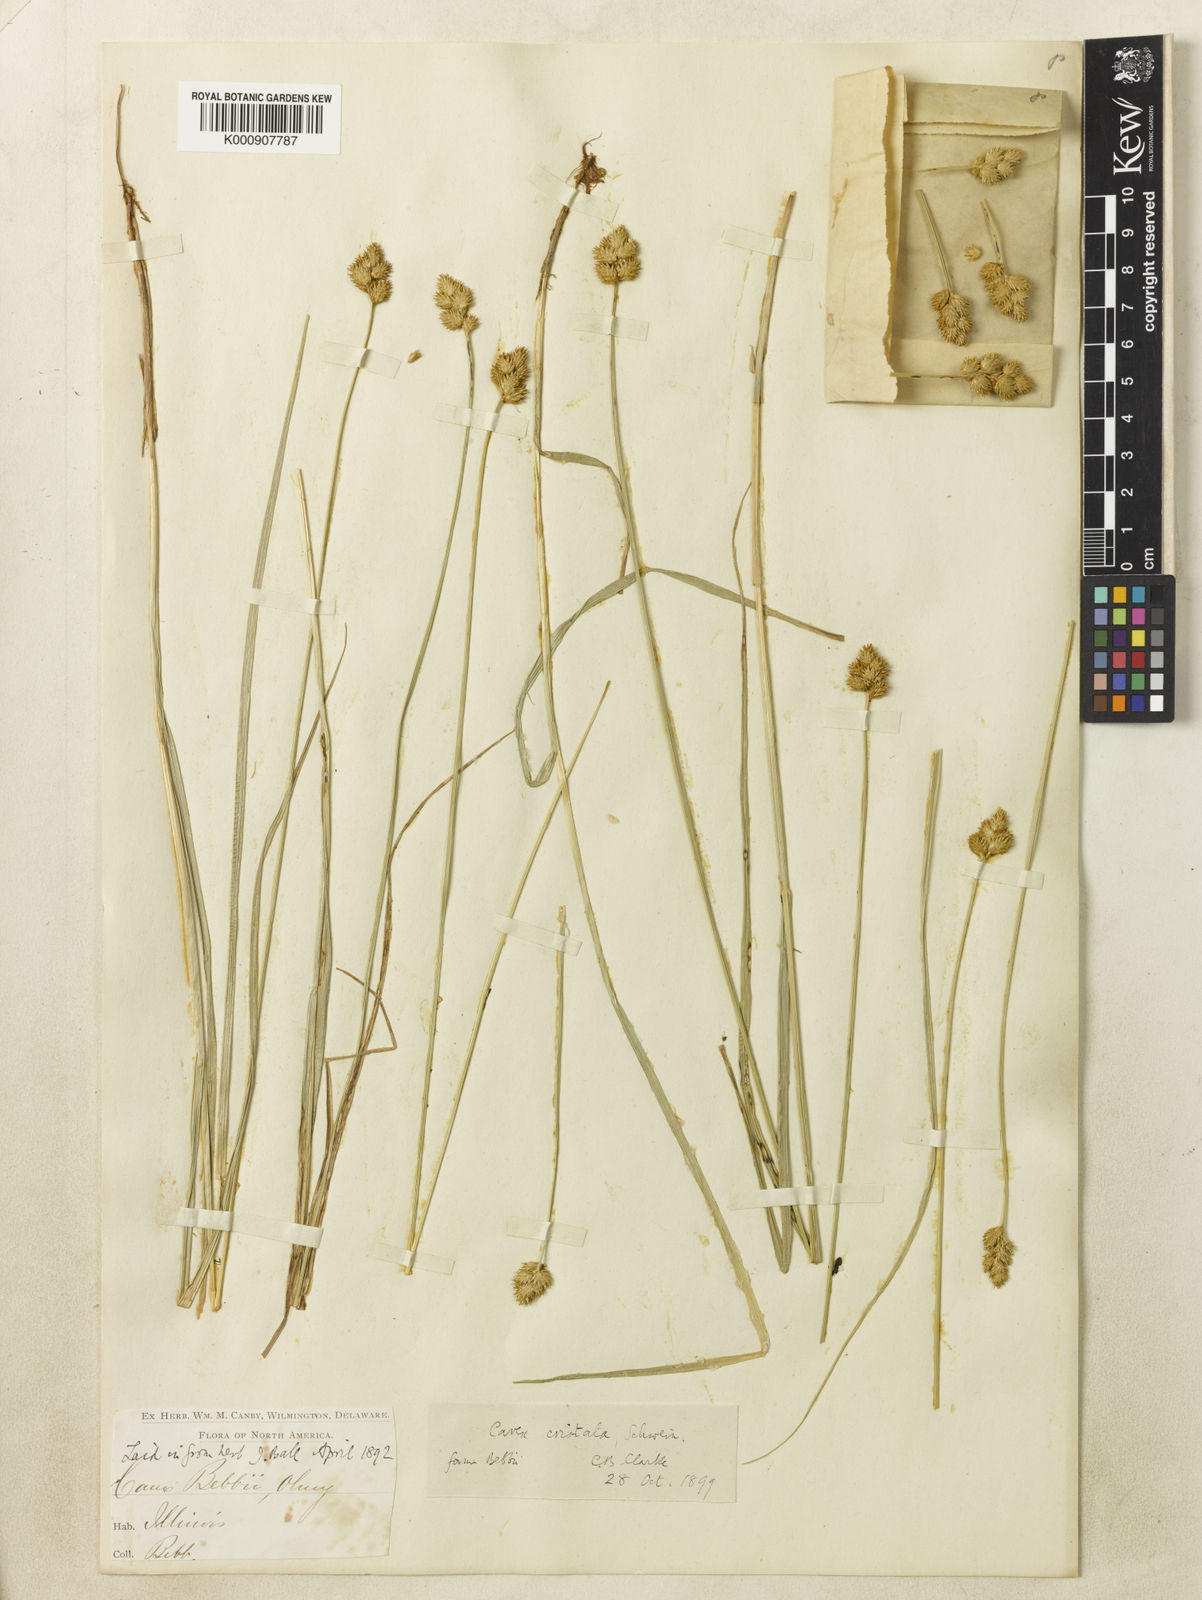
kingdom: Plantae
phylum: Tracheophyta
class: Liliopsida
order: Poales
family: Cyperaceae
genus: Carex
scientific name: Carex
